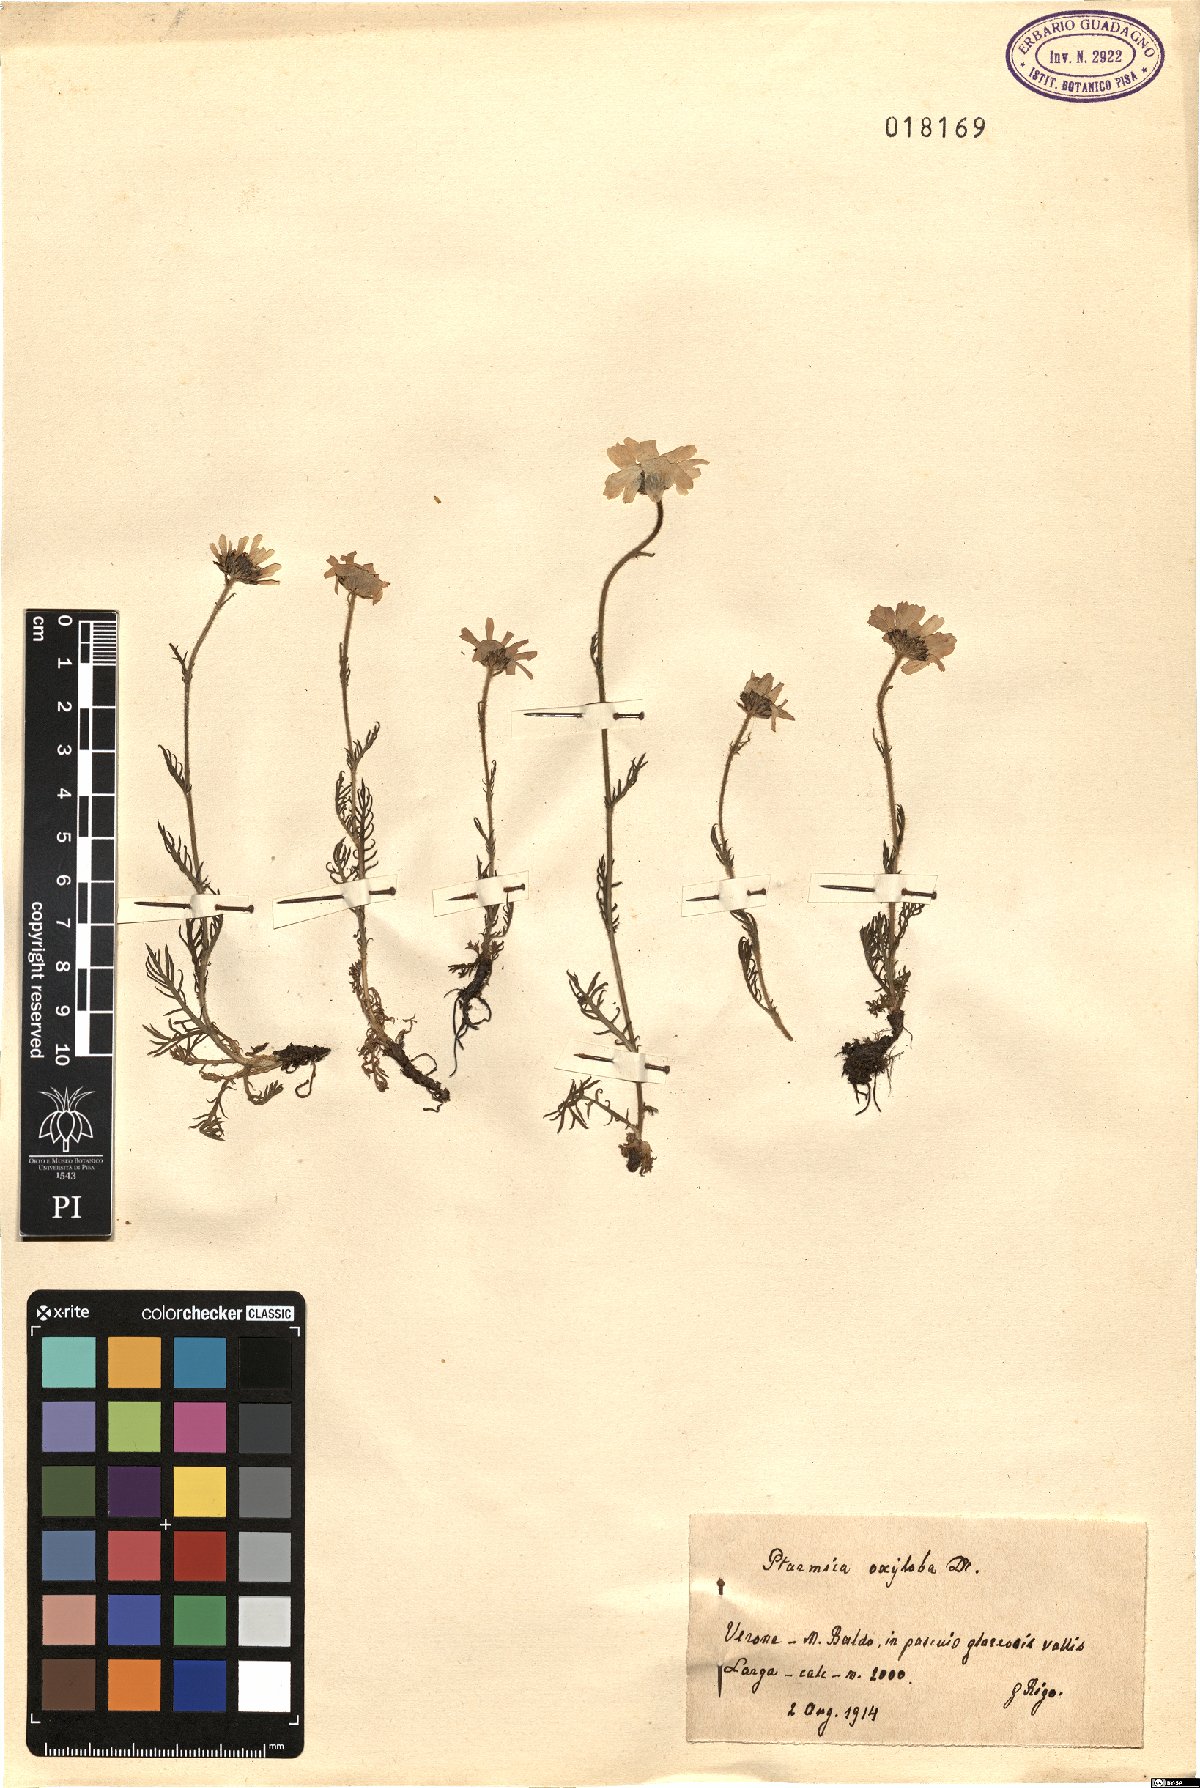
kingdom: Plantae
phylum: Tracheophyta
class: Magnoliopsida
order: Asterales
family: Asteraceae
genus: Achillea
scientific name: Achillea oxyloba
